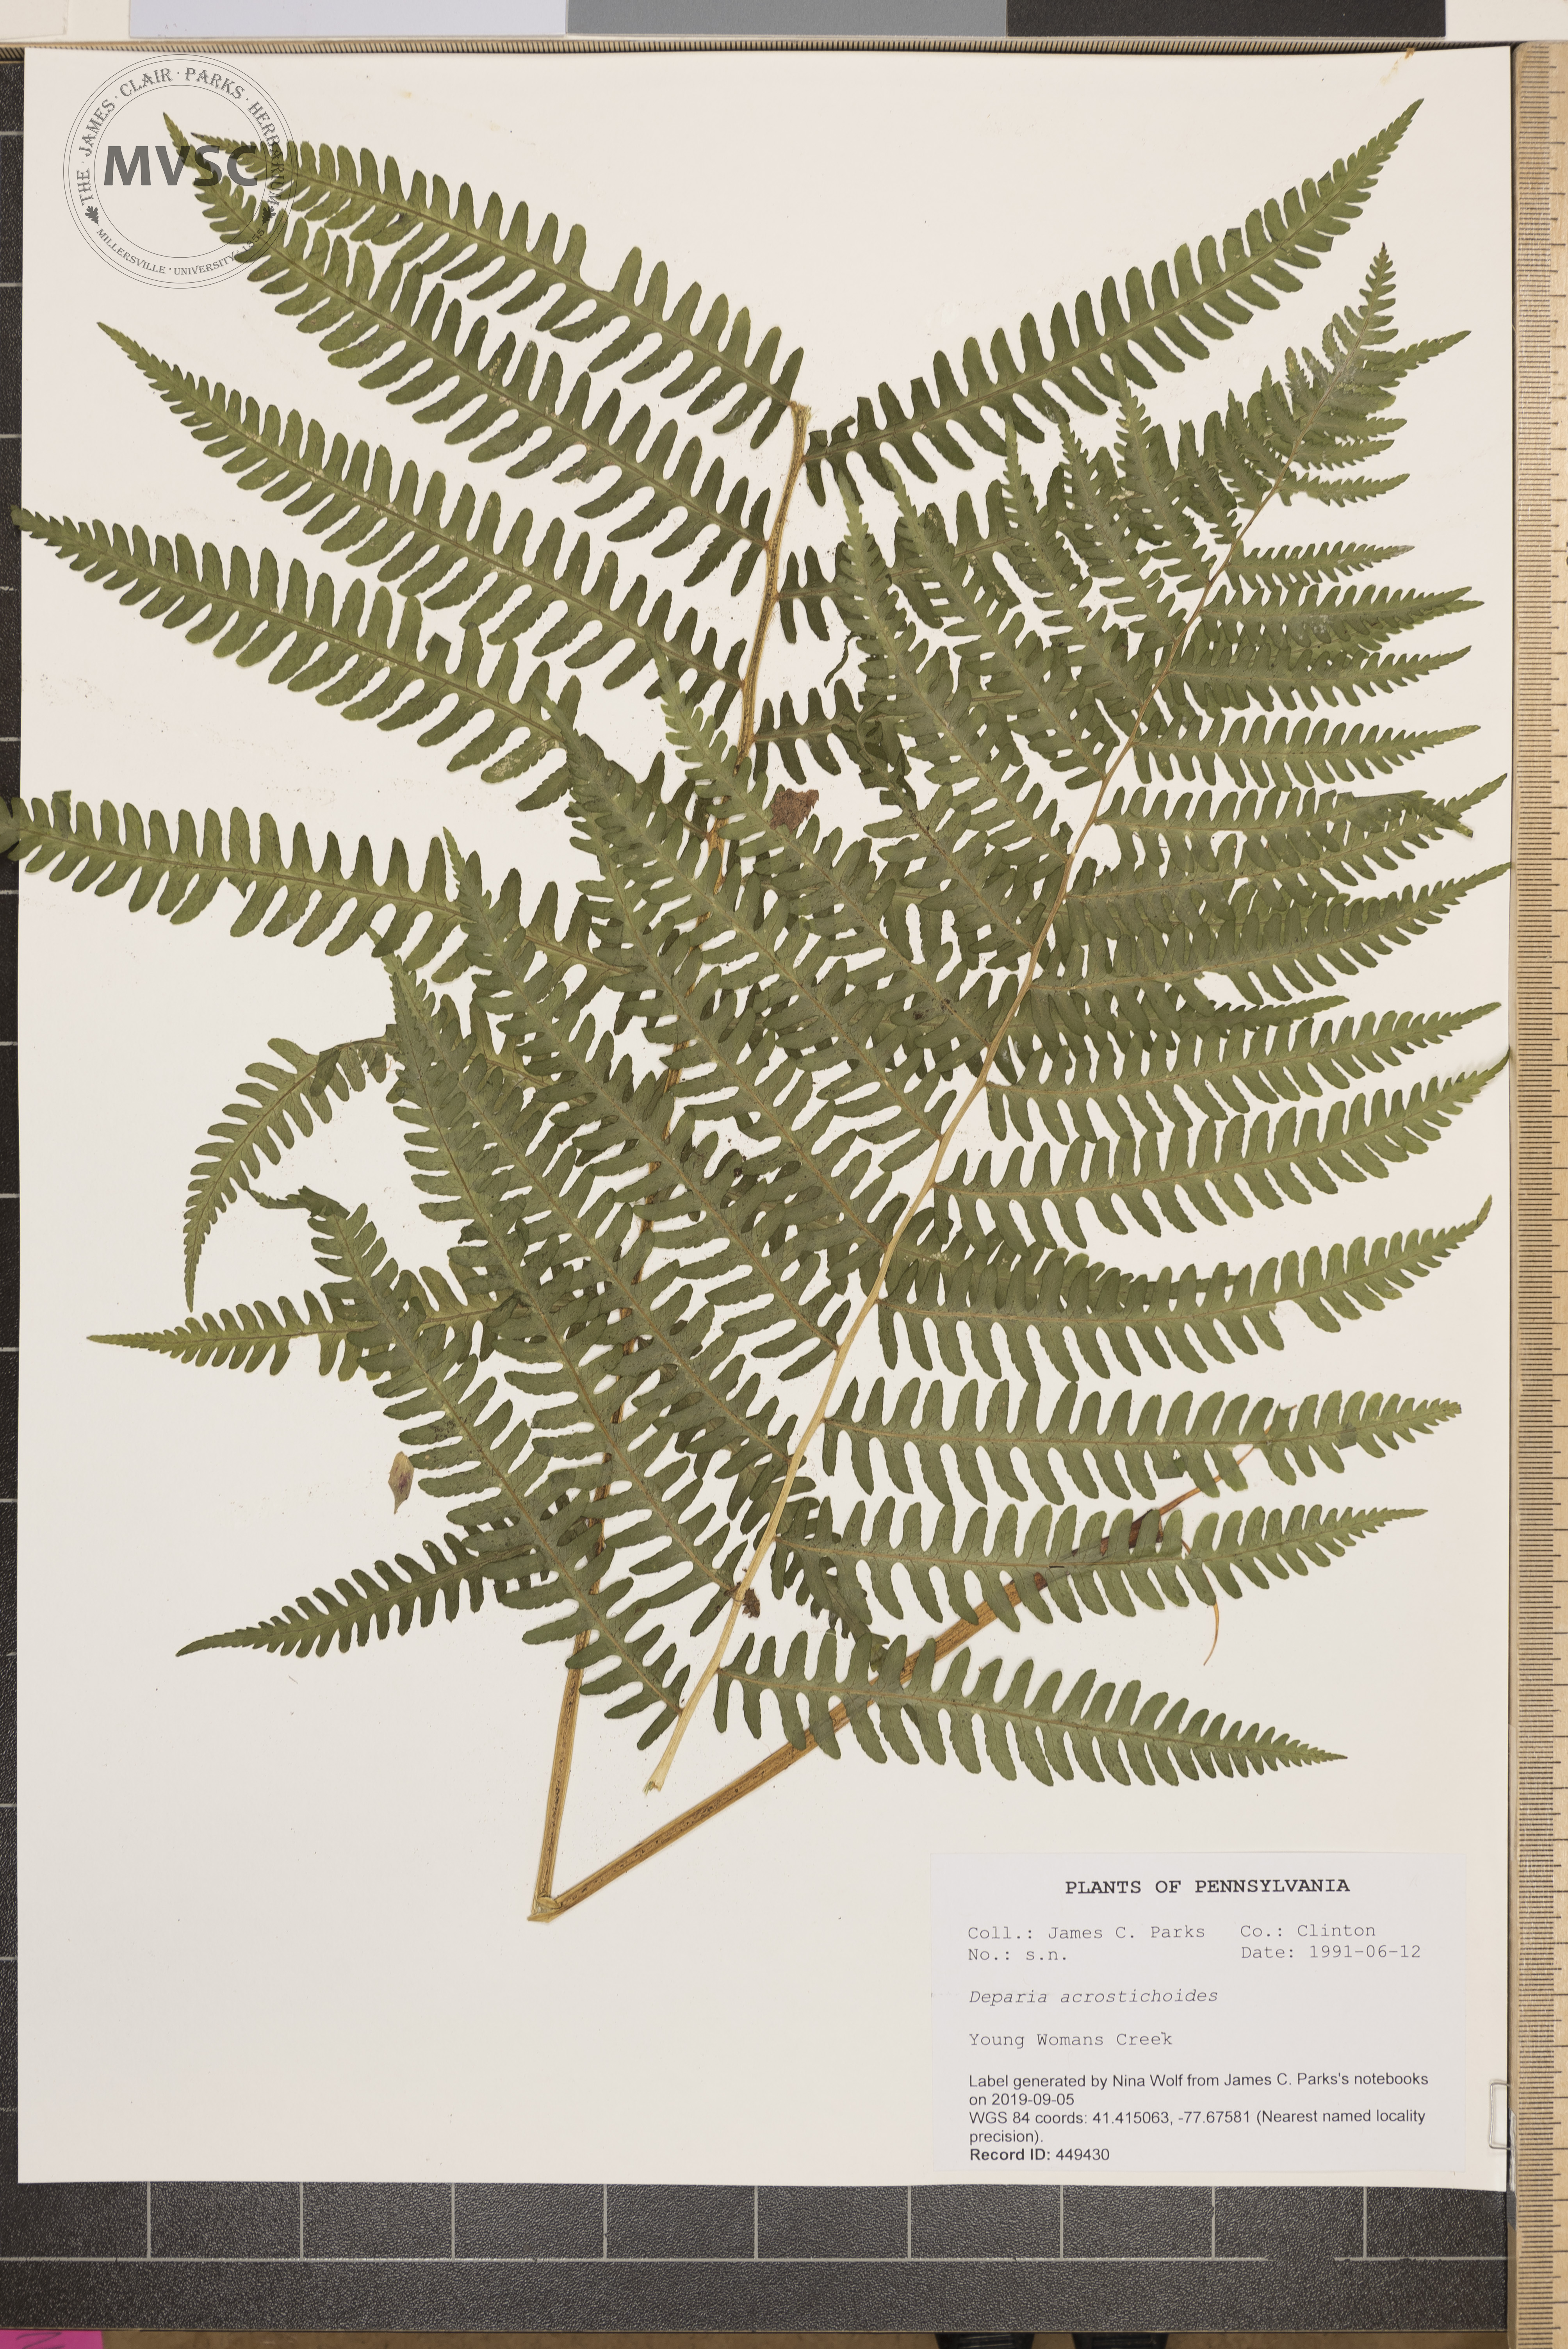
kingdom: Plantae
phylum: Tracheophyta
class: Polypodiopsida
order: Polypodiales
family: Athyriaceae
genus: Deparia
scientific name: Deparia acrostichoides
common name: Silver false spleenwort
